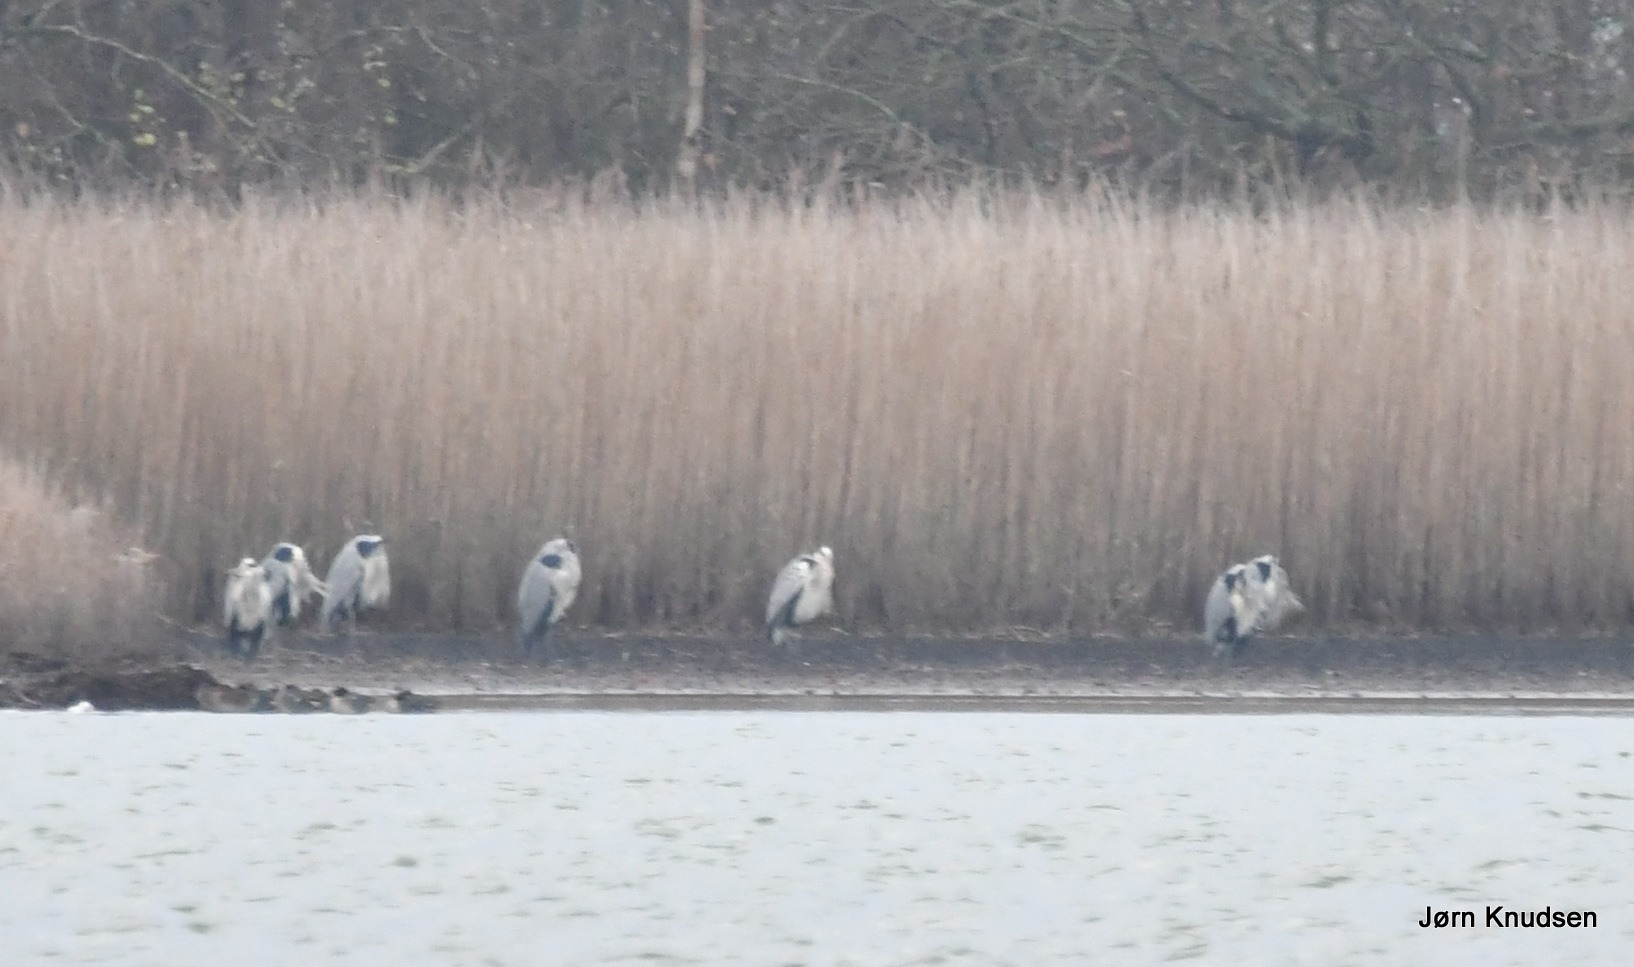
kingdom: Animalia
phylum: Chordata
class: Aves
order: Pelecaniformes
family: Ardeidae
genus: Ardea
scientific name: Ardea cinerea
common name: Fiskehejre
